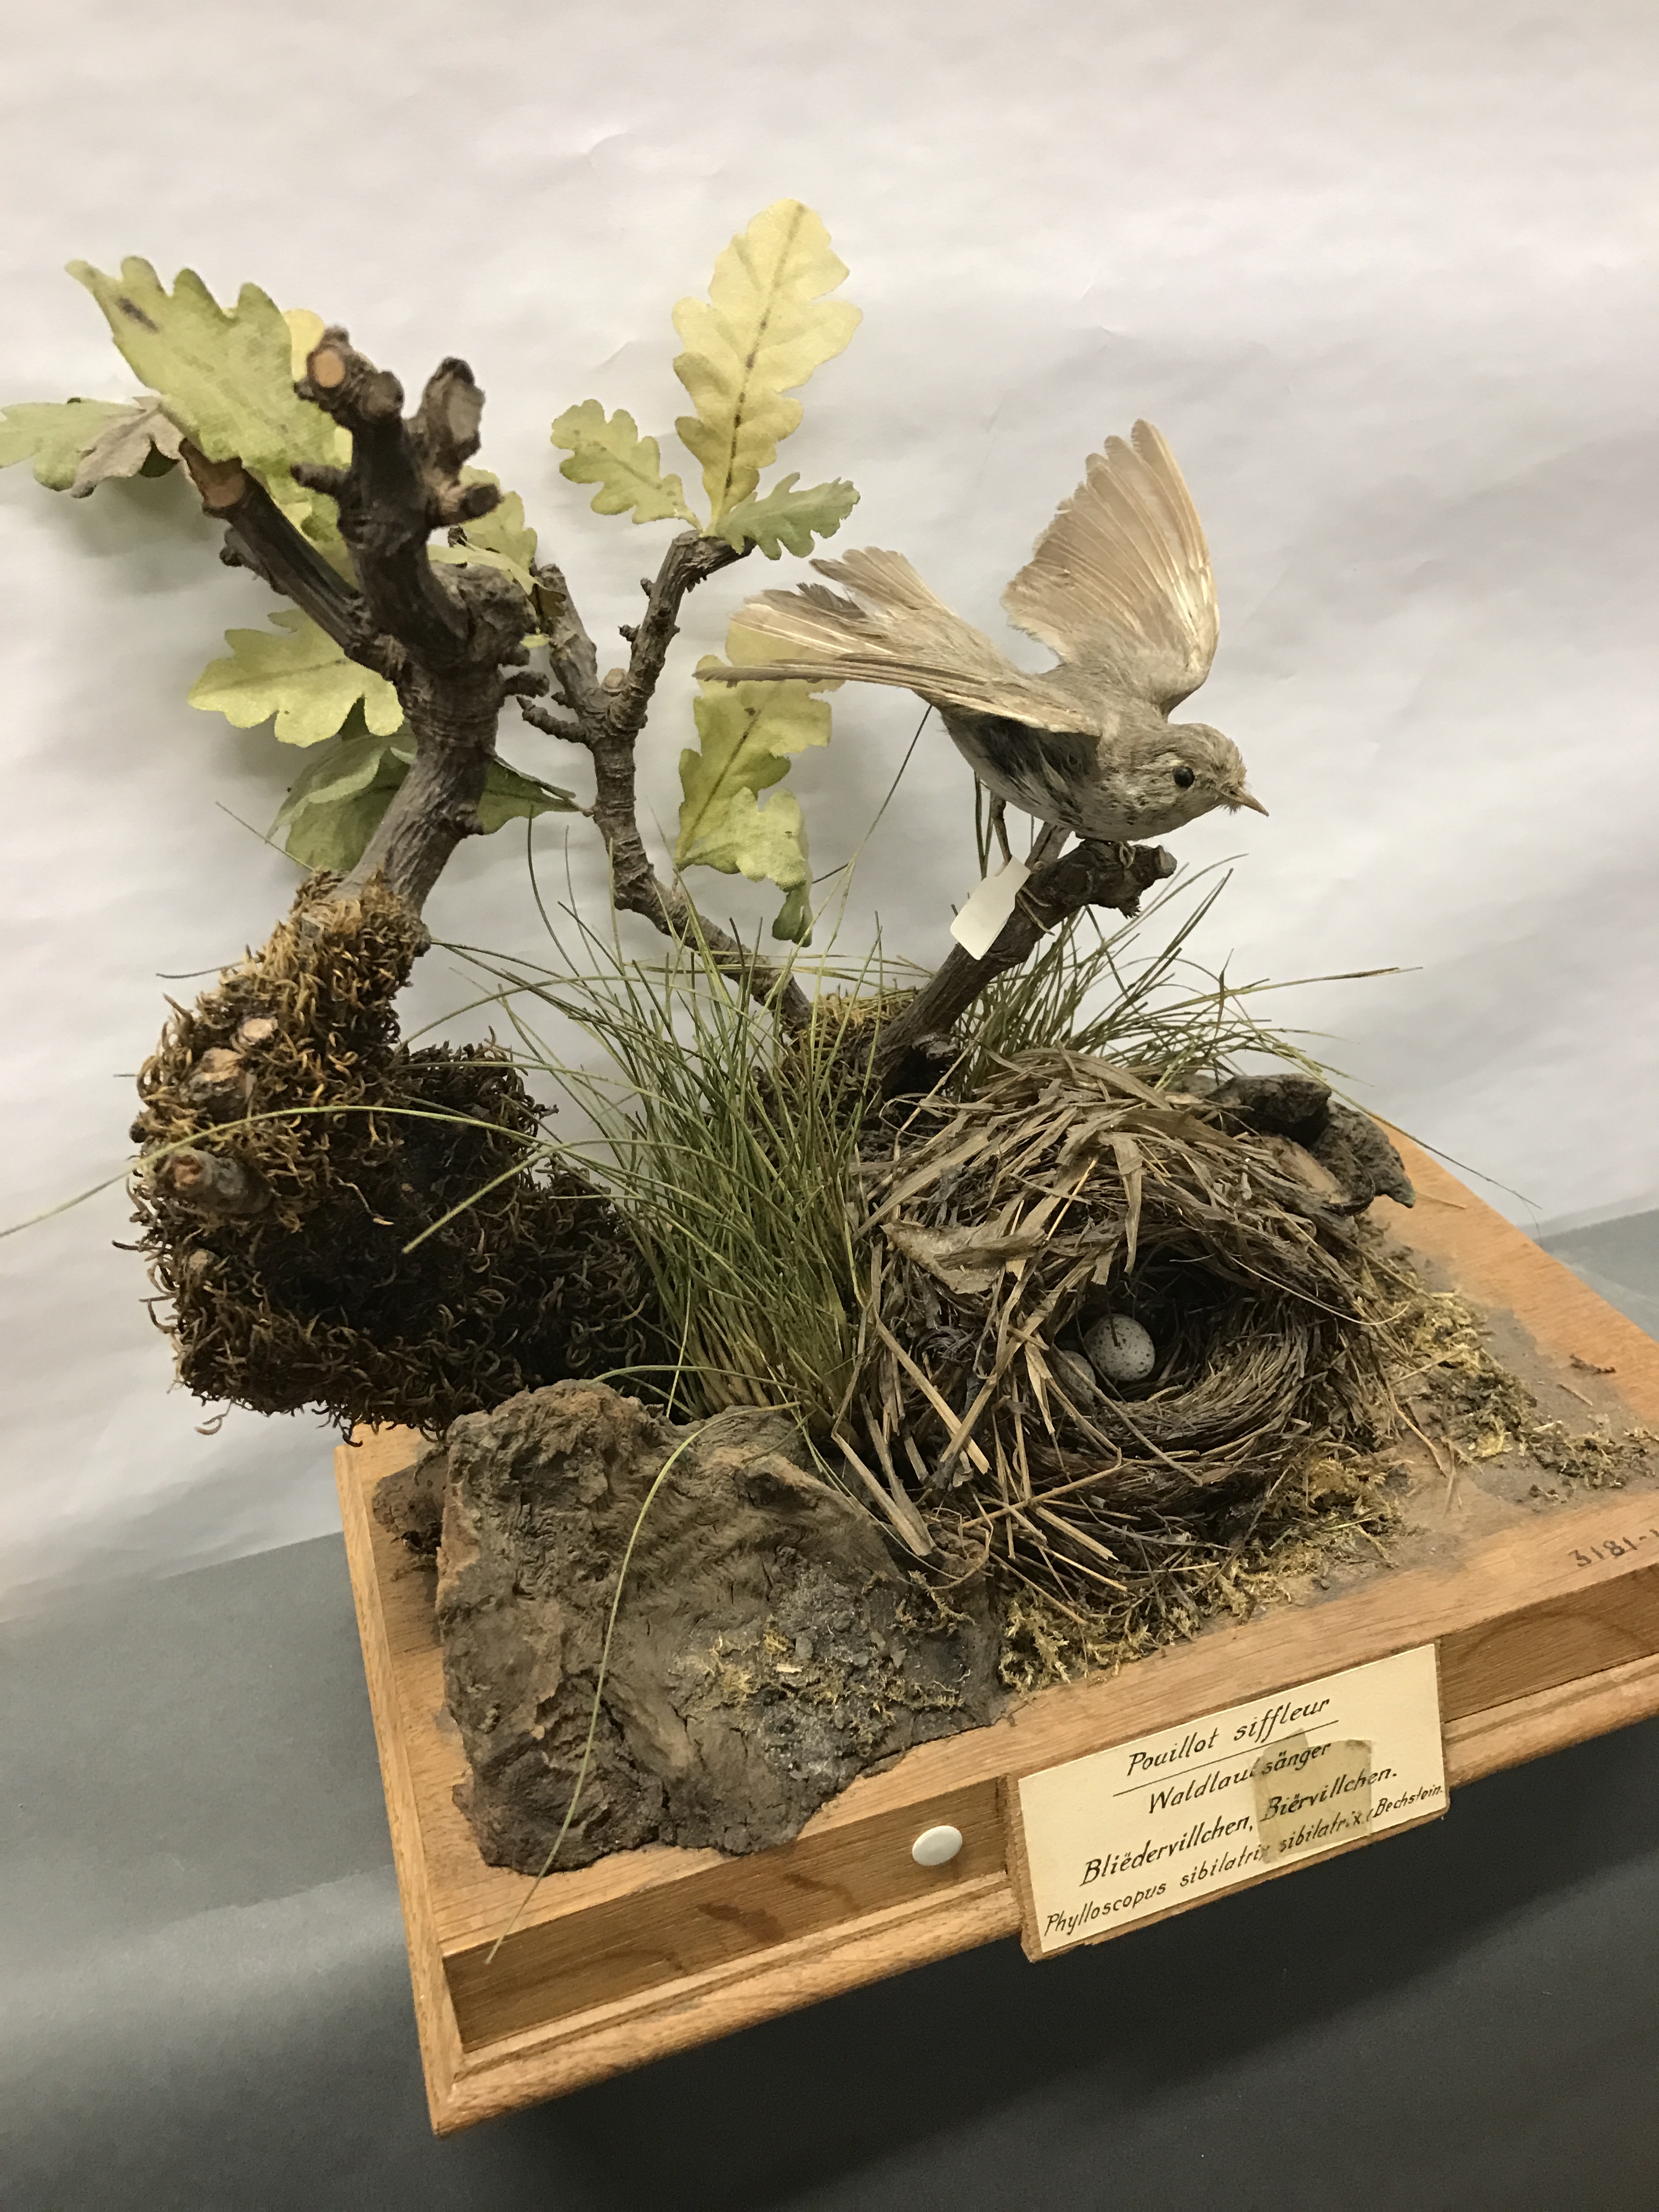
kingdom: Animalia
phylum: Chordata
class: Aves
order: Passeriformes
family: Phylloscopidae
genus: Phylloscopus
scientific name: Phylloscopus sibillatrix
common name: Wood warbler
